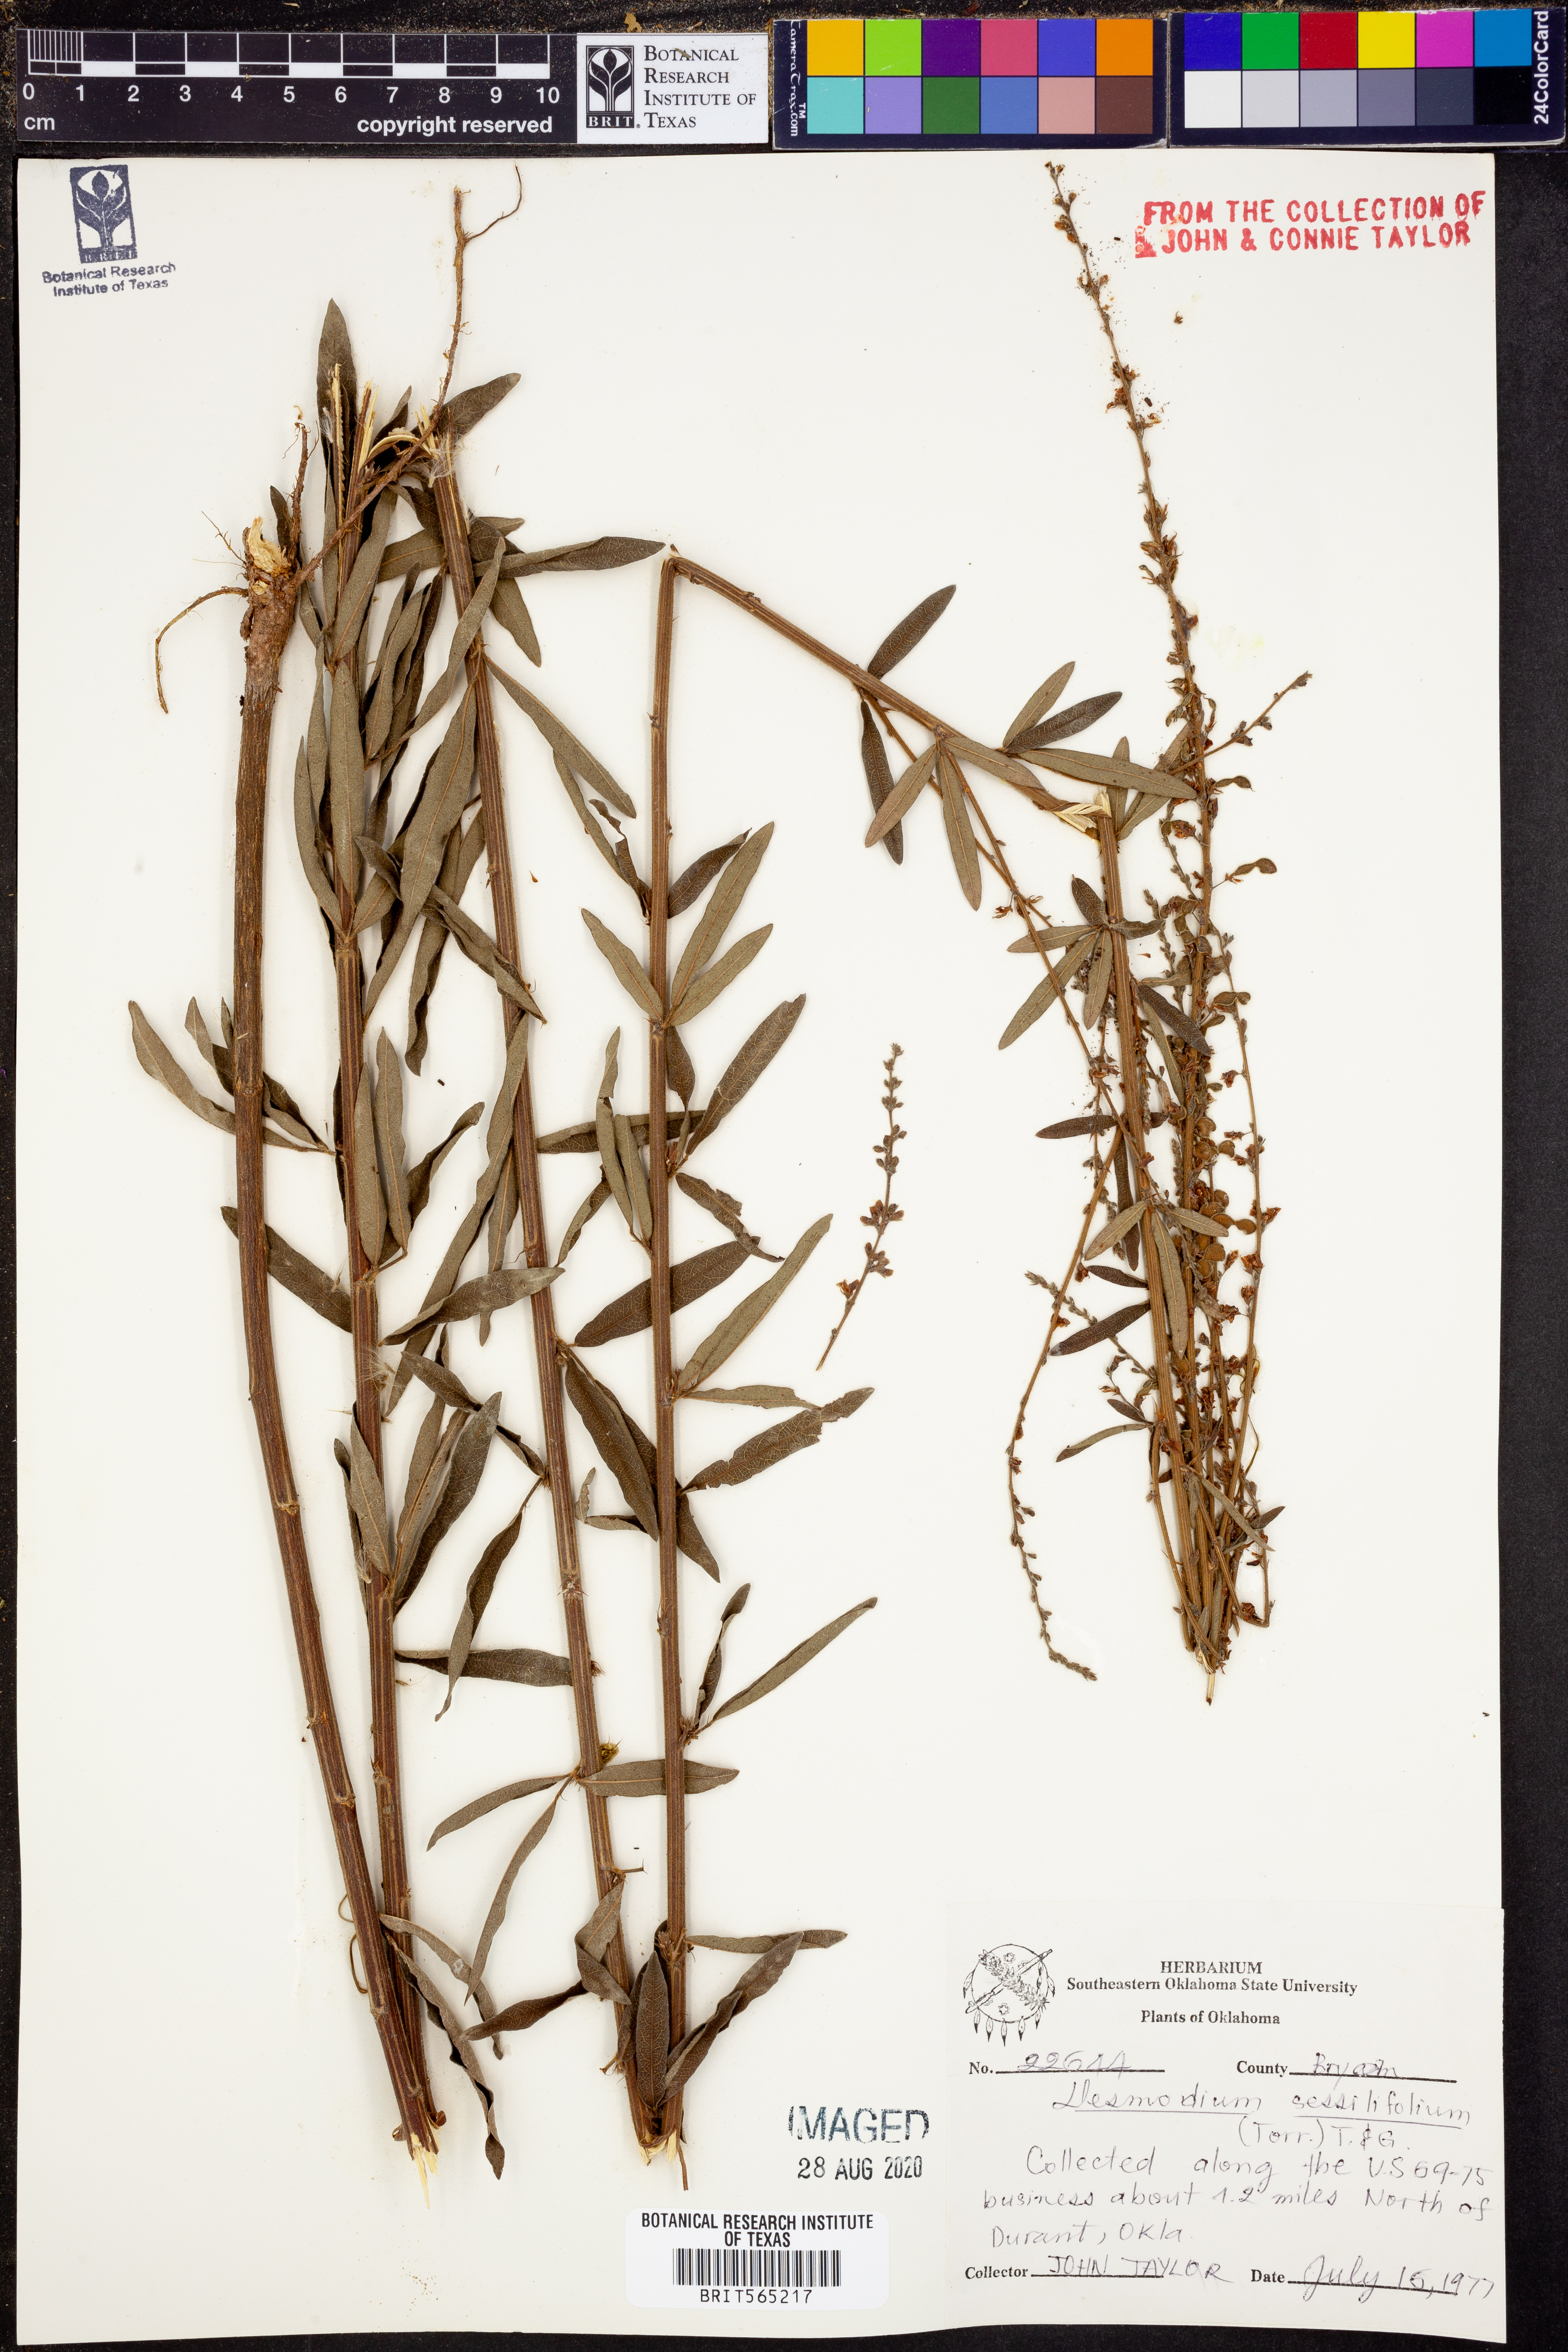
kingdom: Plantae
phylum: Tracheophyta
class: Magnoliopsida
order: Fabales
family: Fabaceae
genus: Desmodium
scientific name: Desmodium sessilifolium
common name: Sessile tick-clover
